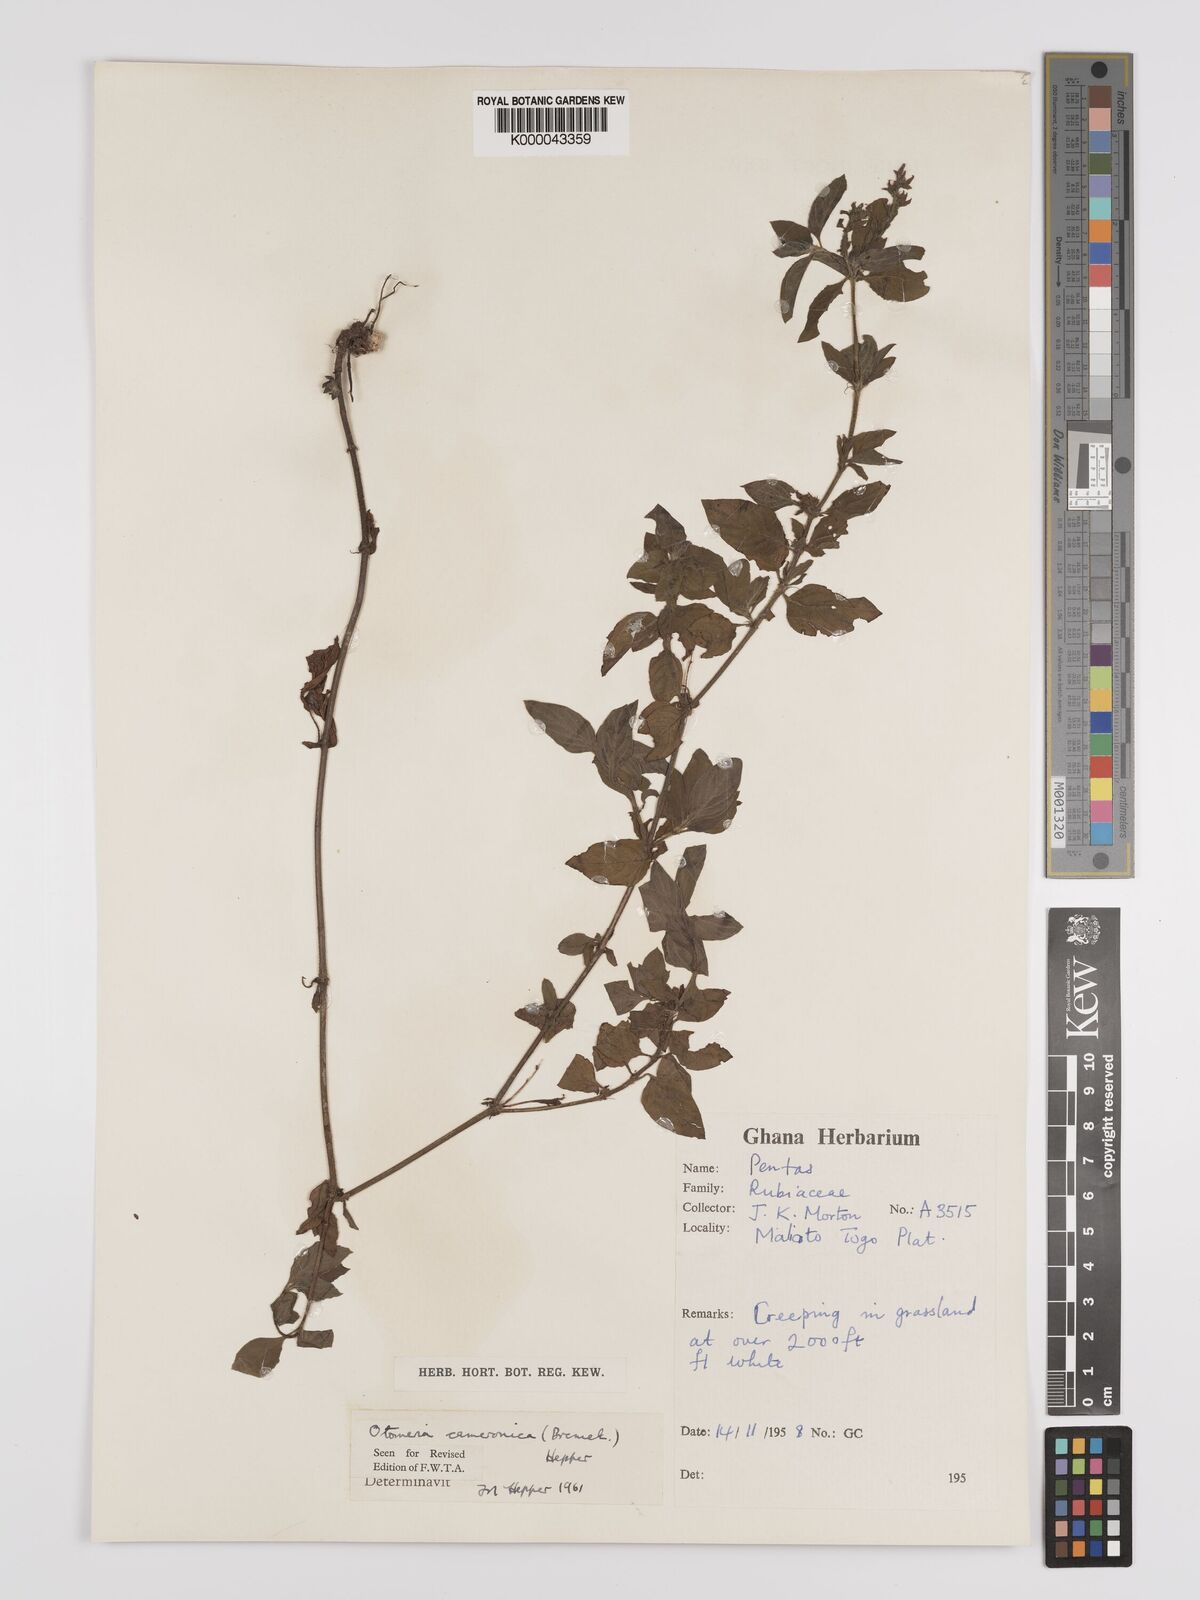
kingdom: Plantae
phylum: Tracheophyta
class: Magnoliopsida
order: Gentianales
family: Rubiaceae
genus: Otomeria
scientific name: Otomeria cameronica
